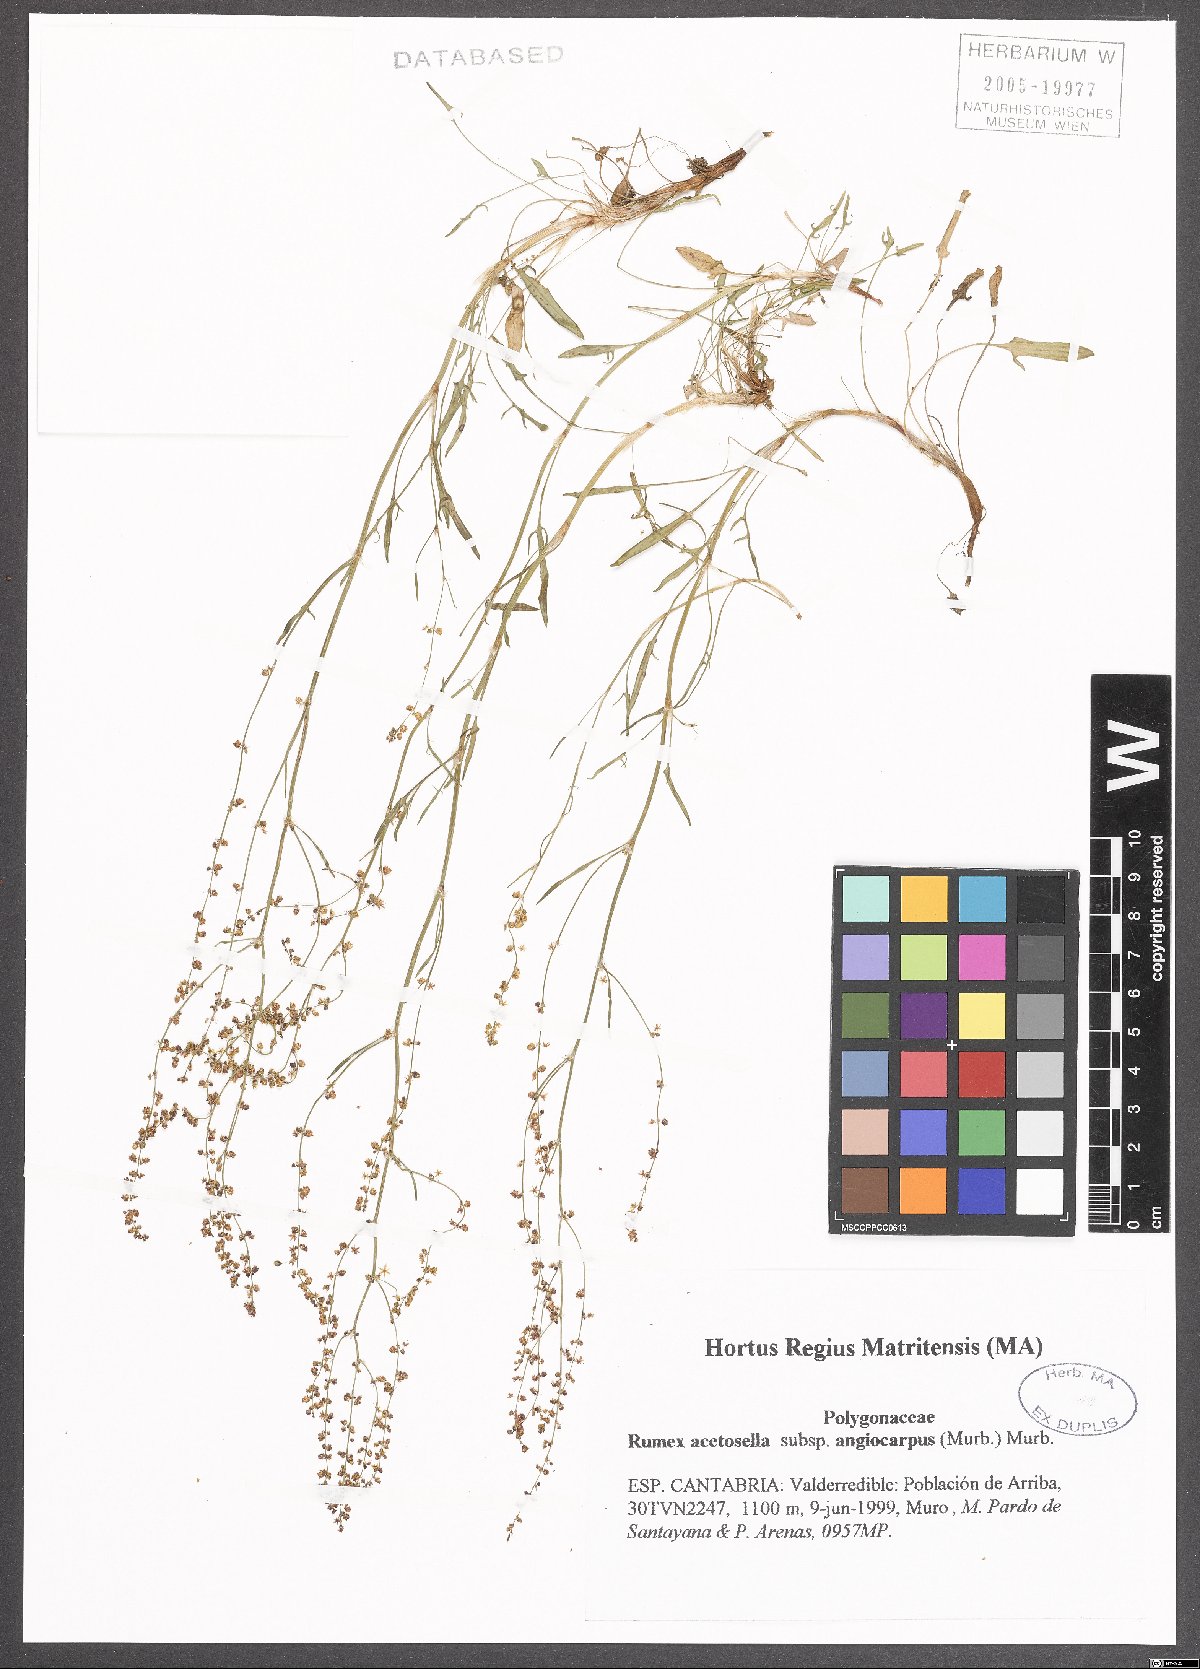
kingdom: Plantae
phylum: Tracheophyta
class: Magnoliopsida
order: Caryophyllales
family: Polygonaceae
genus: Rumex
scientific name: Rumex acetosella
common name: Common sheep sorrel
